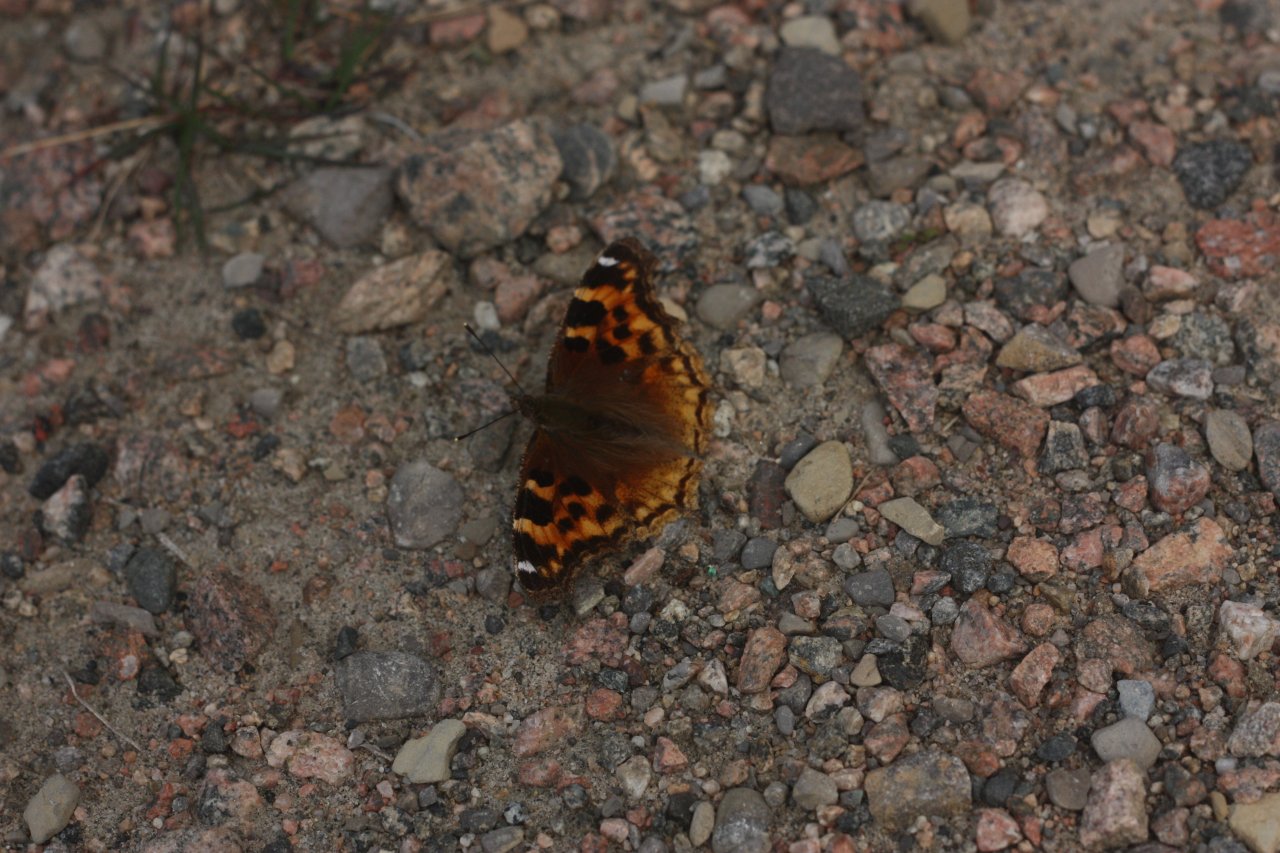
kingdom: Animalia
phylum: Arthropoda
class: Insecta
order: Lepidoptera
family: Nymphalidae
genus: Polygonia
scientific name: Polygonia vaualbum
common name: Compton Tortoiseshell
